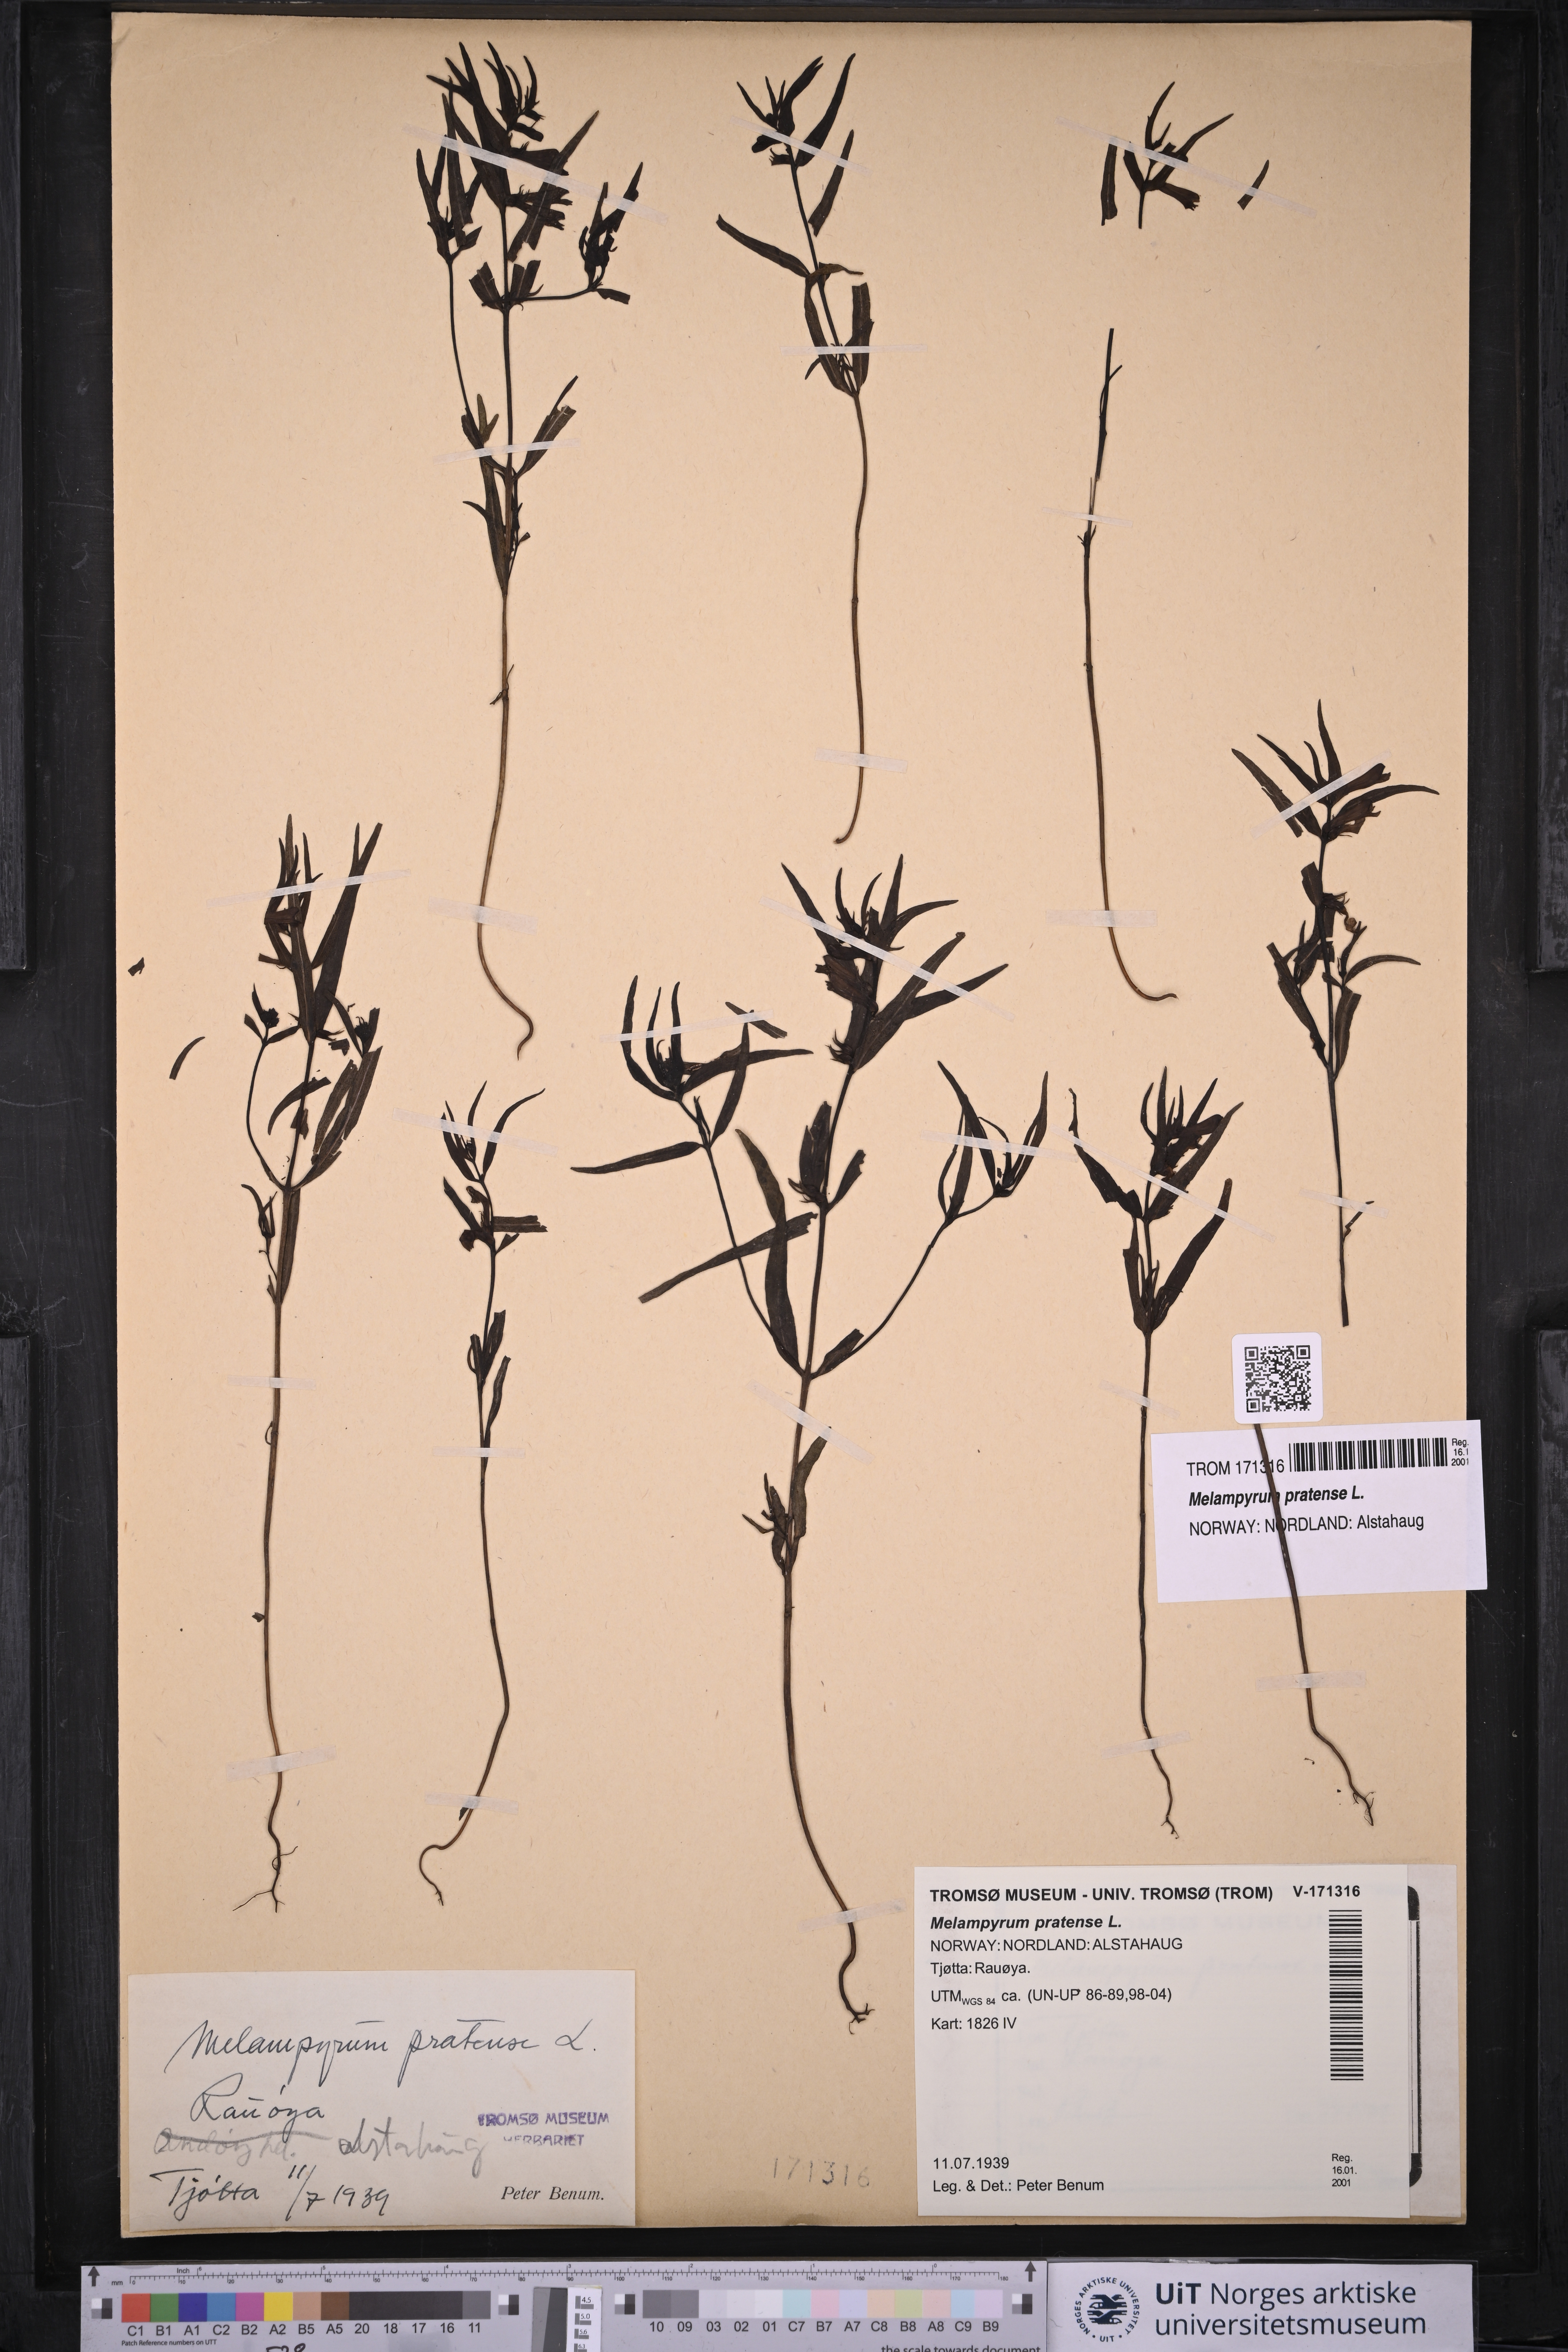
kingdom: Plantae
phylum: Tracheophyta
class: Magnoliopsida
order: Lamiales
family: Orobanchaceae
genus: Melampyrum
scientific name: Melampyrum pratense
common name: Common cow-wheat
